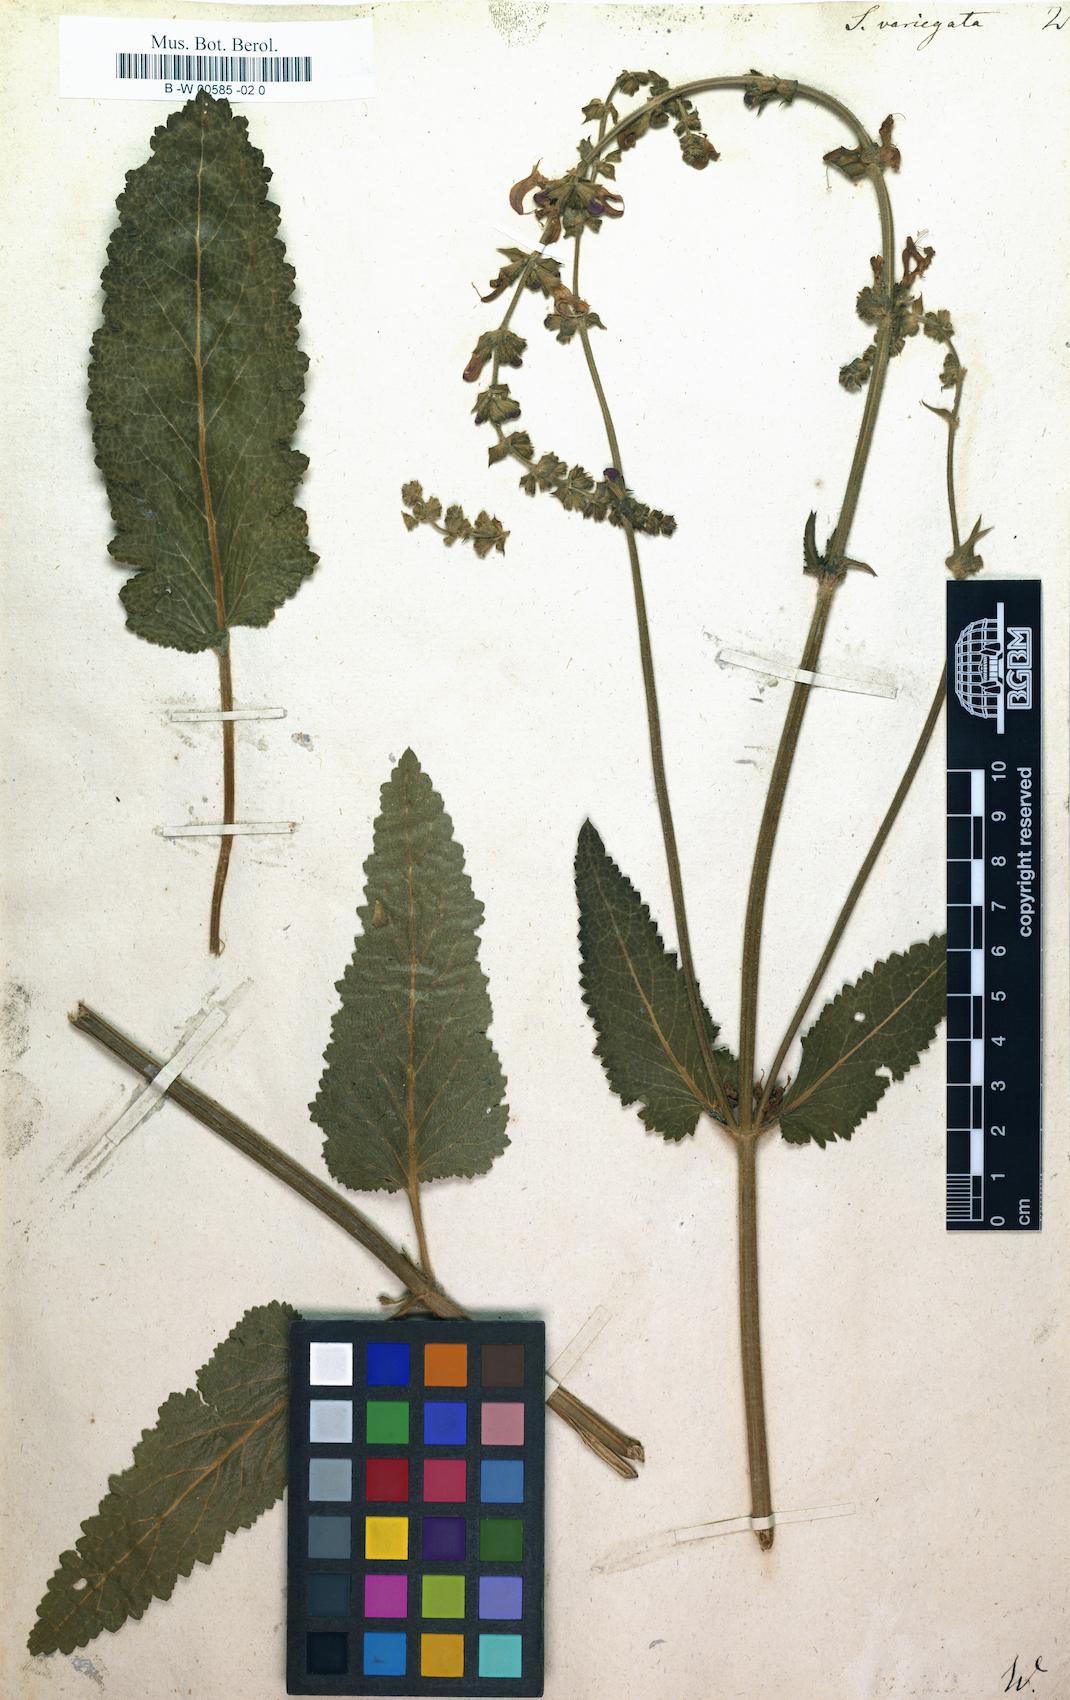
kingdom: Plantae
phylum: Tracheophyta
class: Magnoliopsida
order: Lamiales
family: Lamiaceae
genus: Salvia
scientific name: Salvia pratensis
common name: Meadow sage
